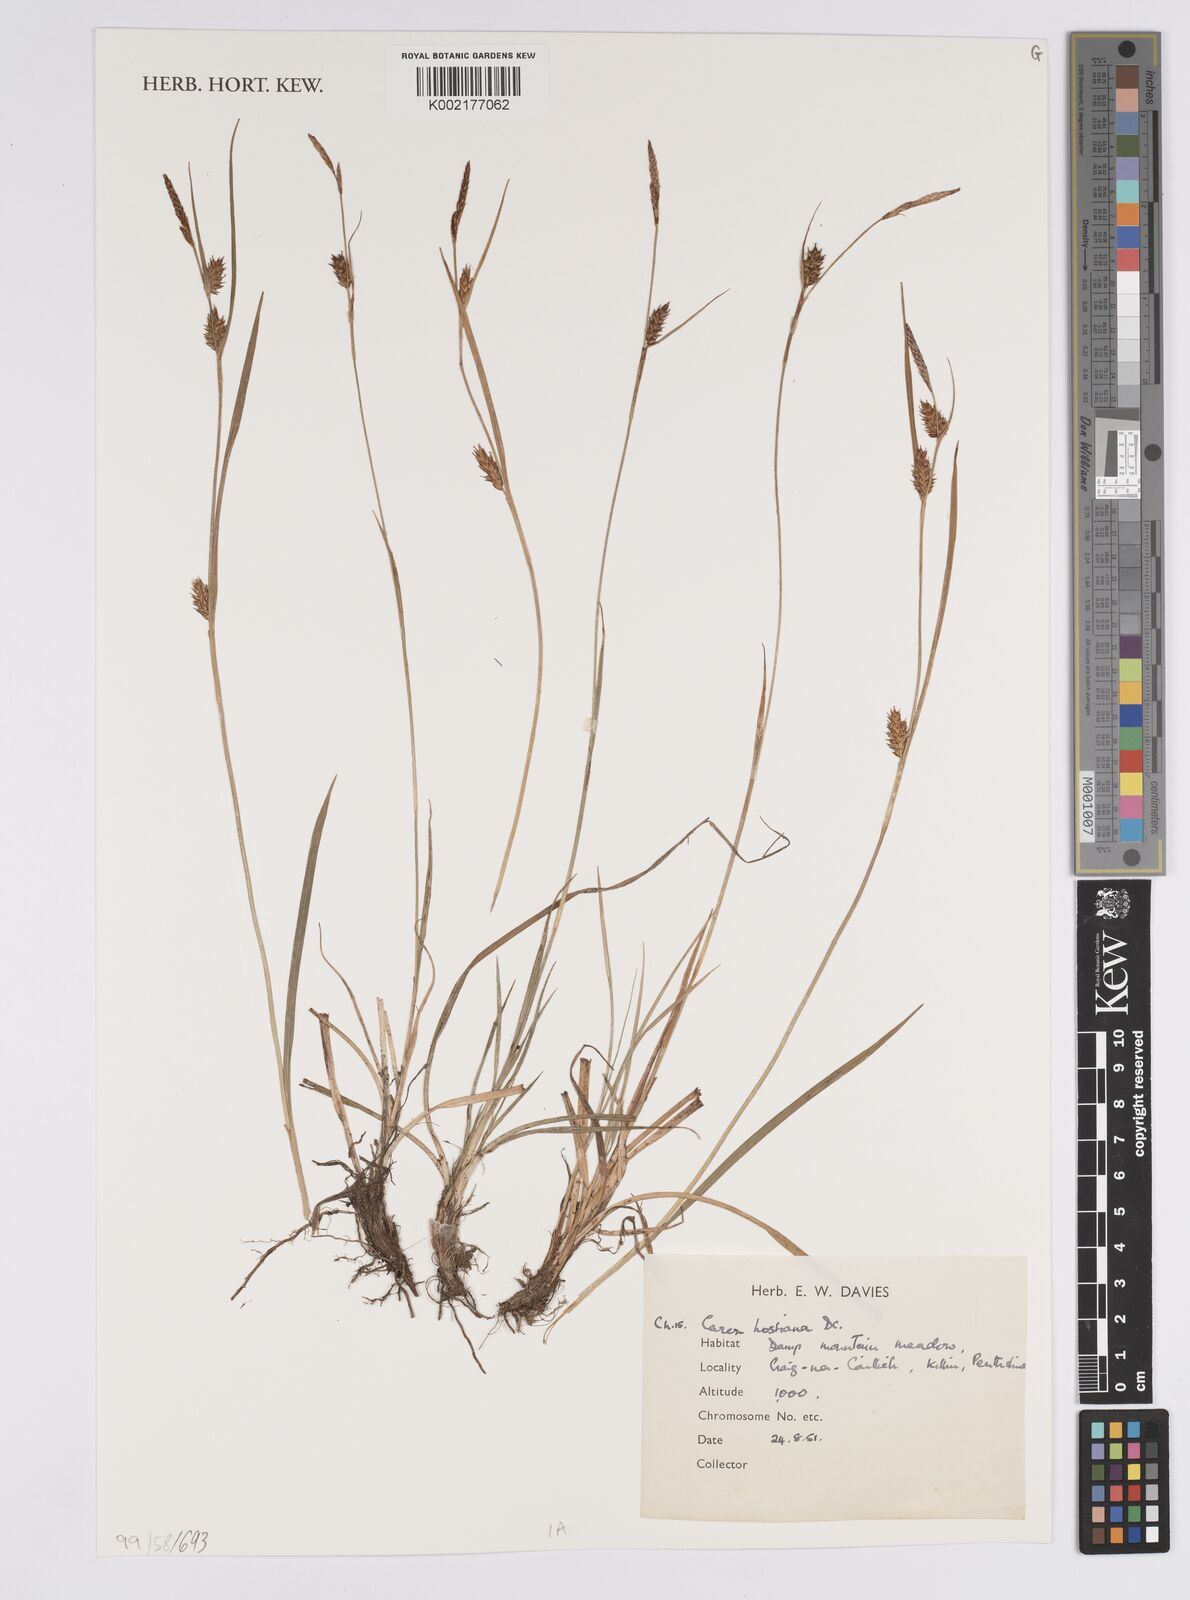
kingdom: Plantae
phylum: Tracheophyta
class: Liliopsida
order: Poales
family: Cyperaceae
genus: Carex
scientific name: Carex hostiana
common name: Tawny sedge
